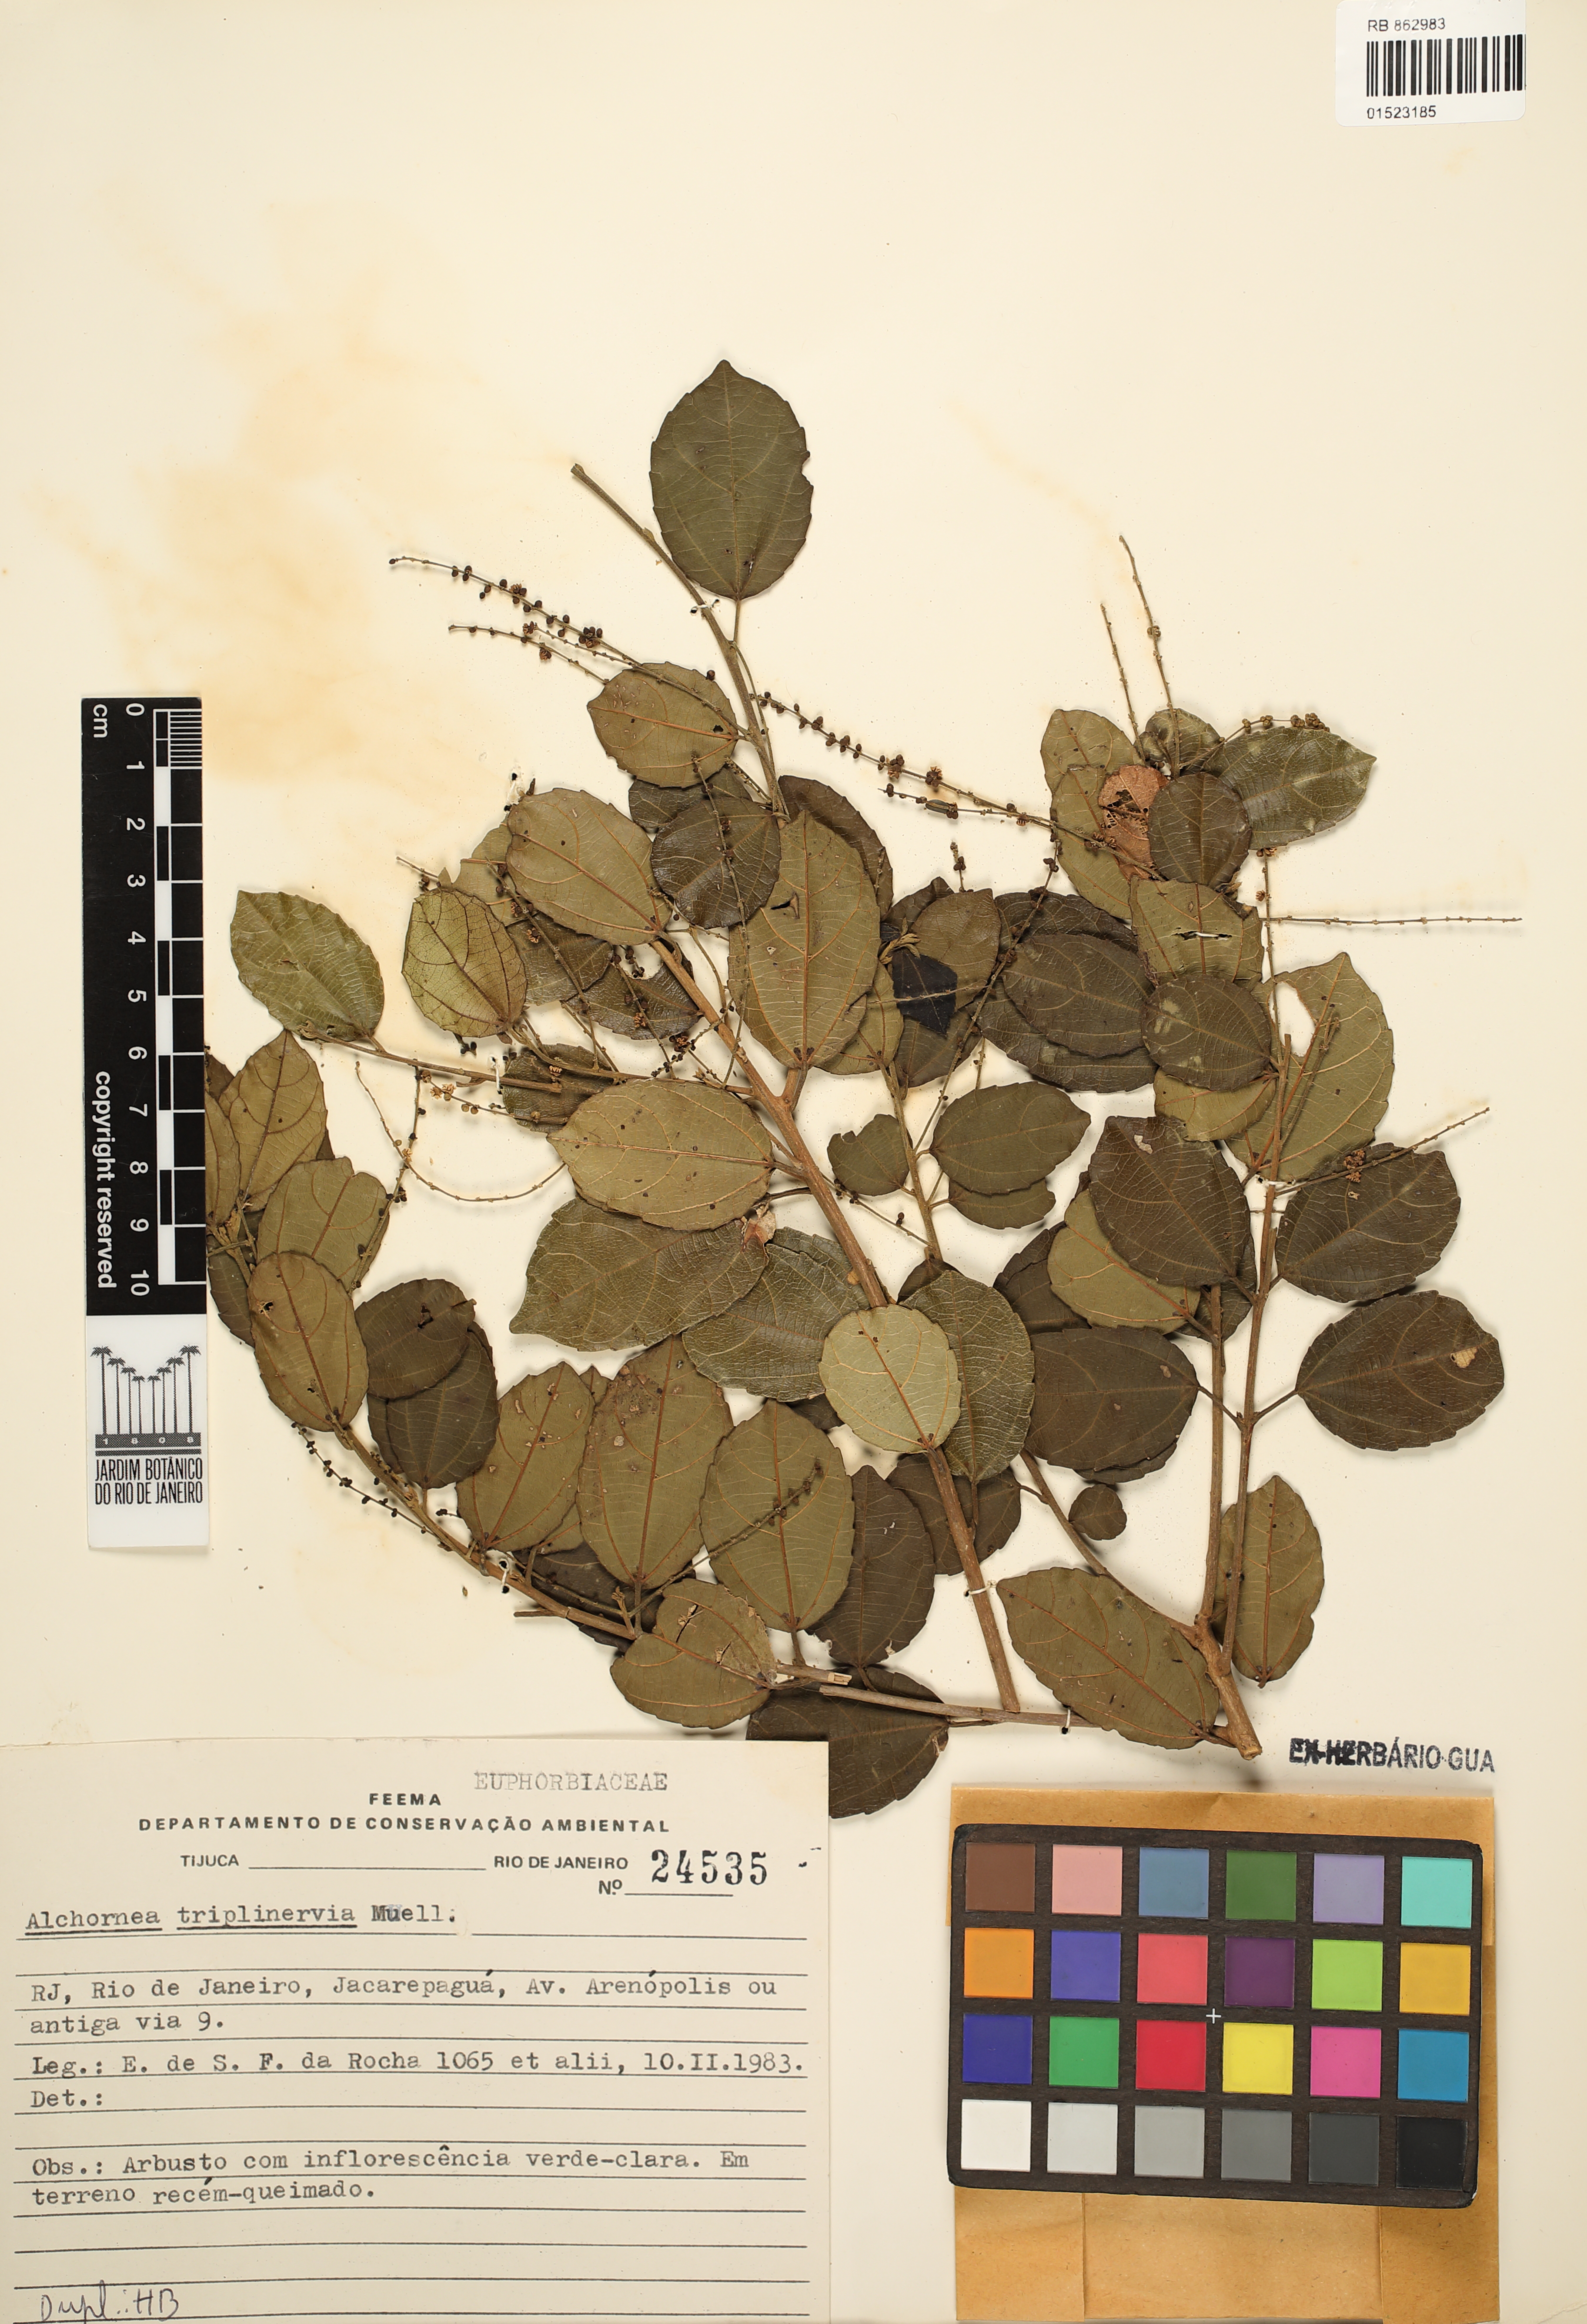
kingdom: Plantae
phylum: Tracheophyta
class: Magnoliopsida
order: Malpighiales
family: Euphorbiaceae
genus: Alchornea
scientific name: Alchornea triplinervia
